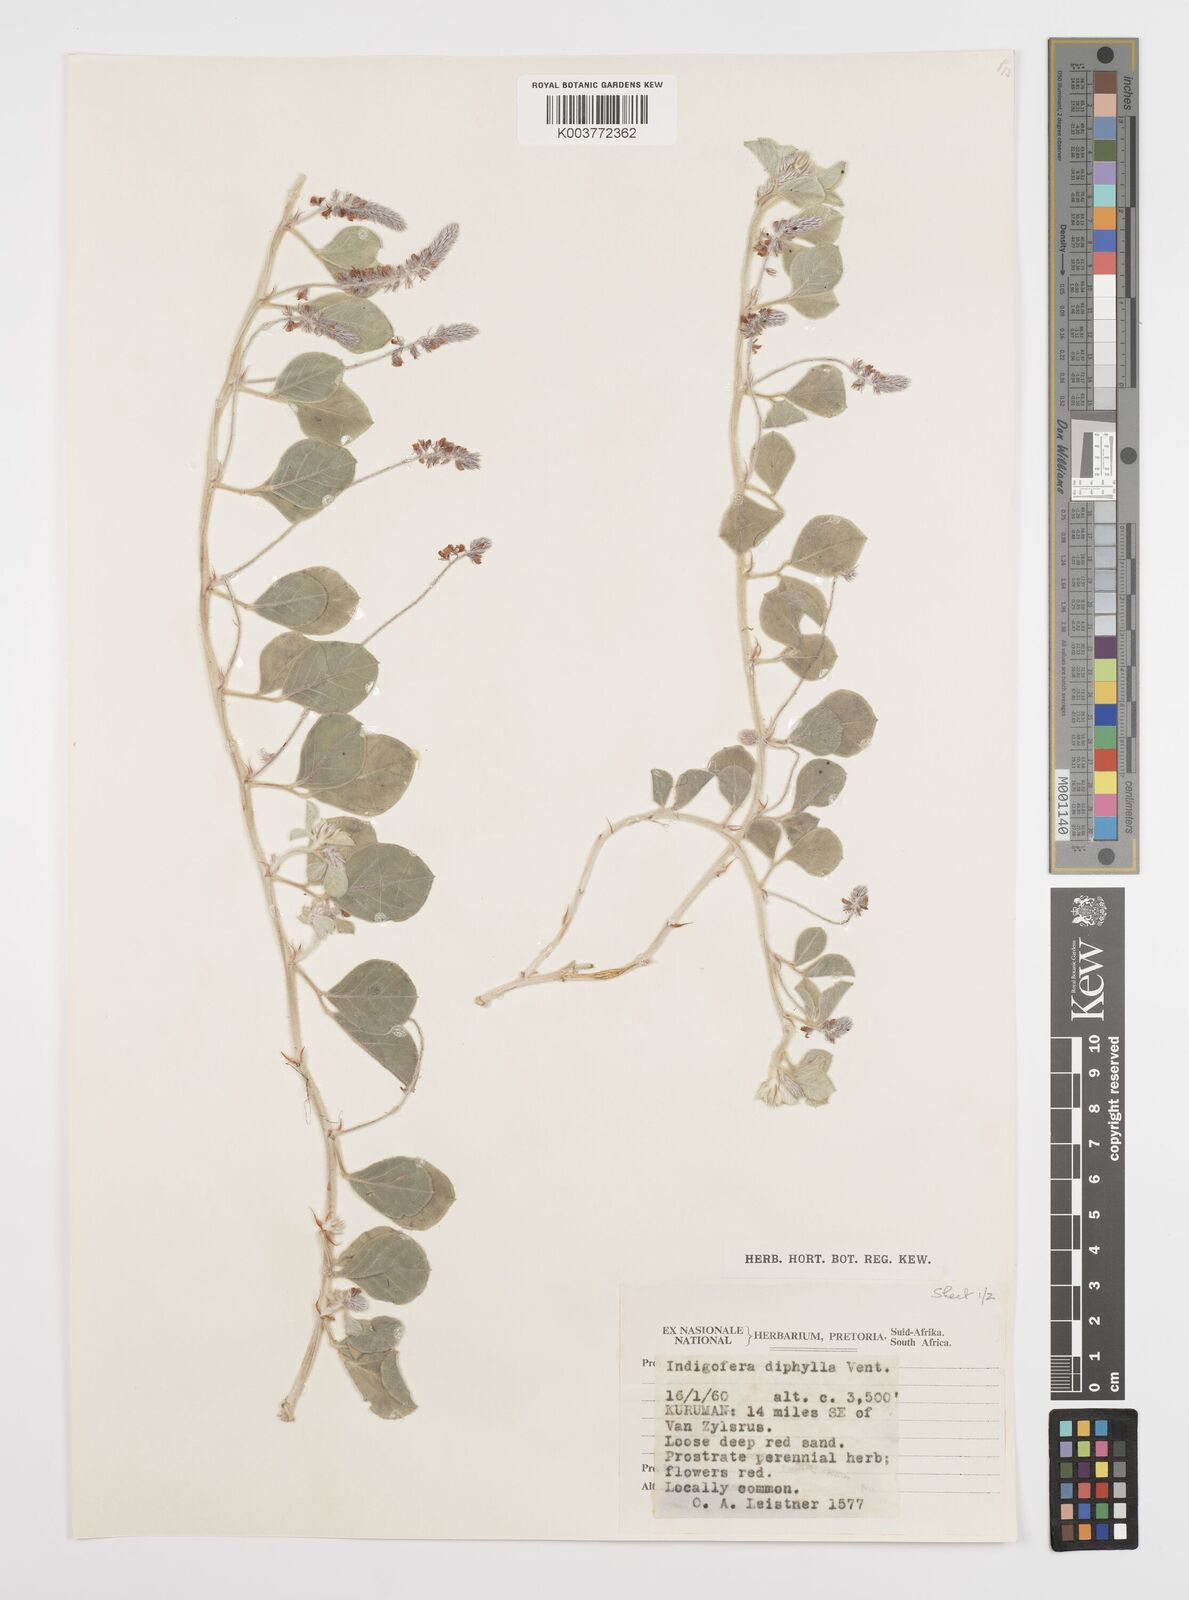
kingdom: Plantae
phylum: Tracheophyta
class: Magnoliopsida
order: Fabales
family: Fabaceae
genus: Indigofera
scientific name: Indigofera flavicans
